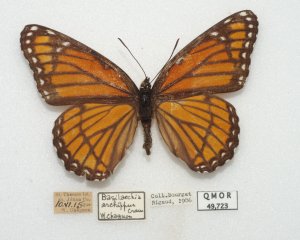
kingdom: Animalia
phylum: Arthropoda
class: Insecta
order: Lepidoptera
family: Nymphalidae
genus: Limenitis
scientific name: Limenitis archippus
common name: Viceroy
